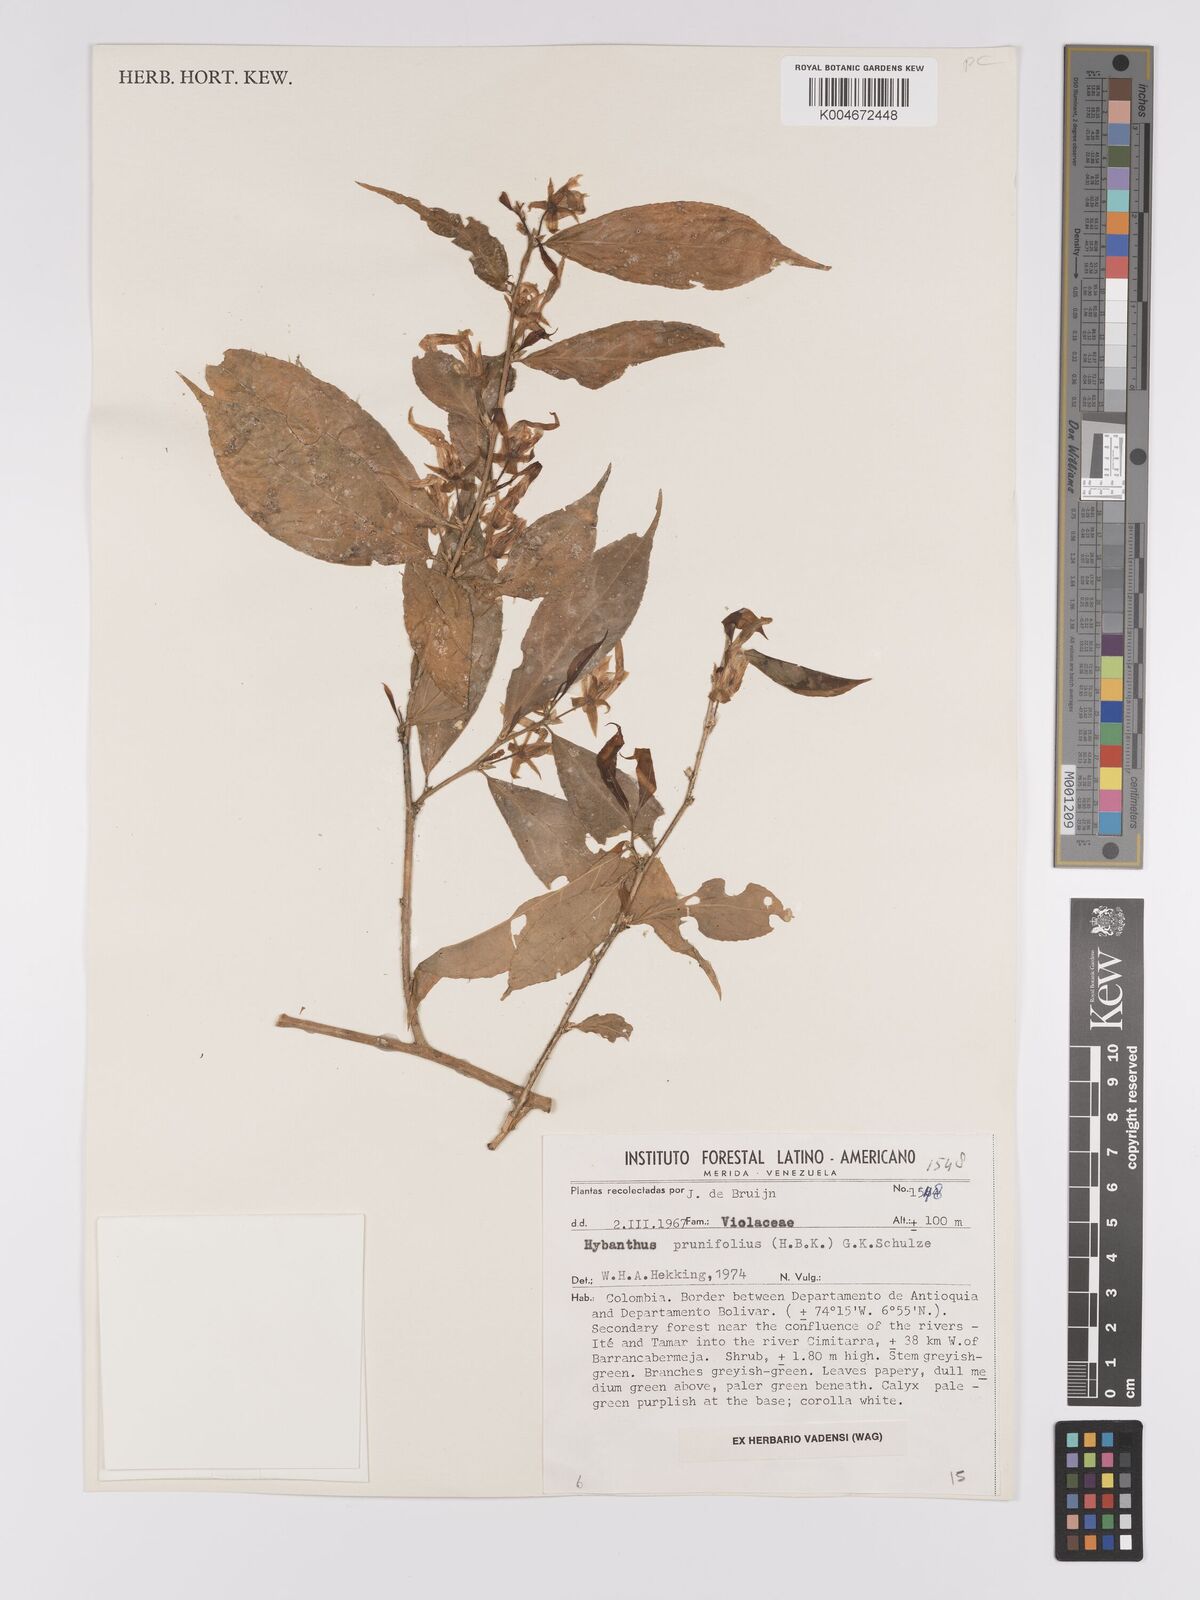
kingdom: Plantae
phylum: Tracheophyta
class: Magnoliopsida
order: Malpighiales
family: Violaceae
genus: Pombalia
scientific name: Pombalia prunifolia
